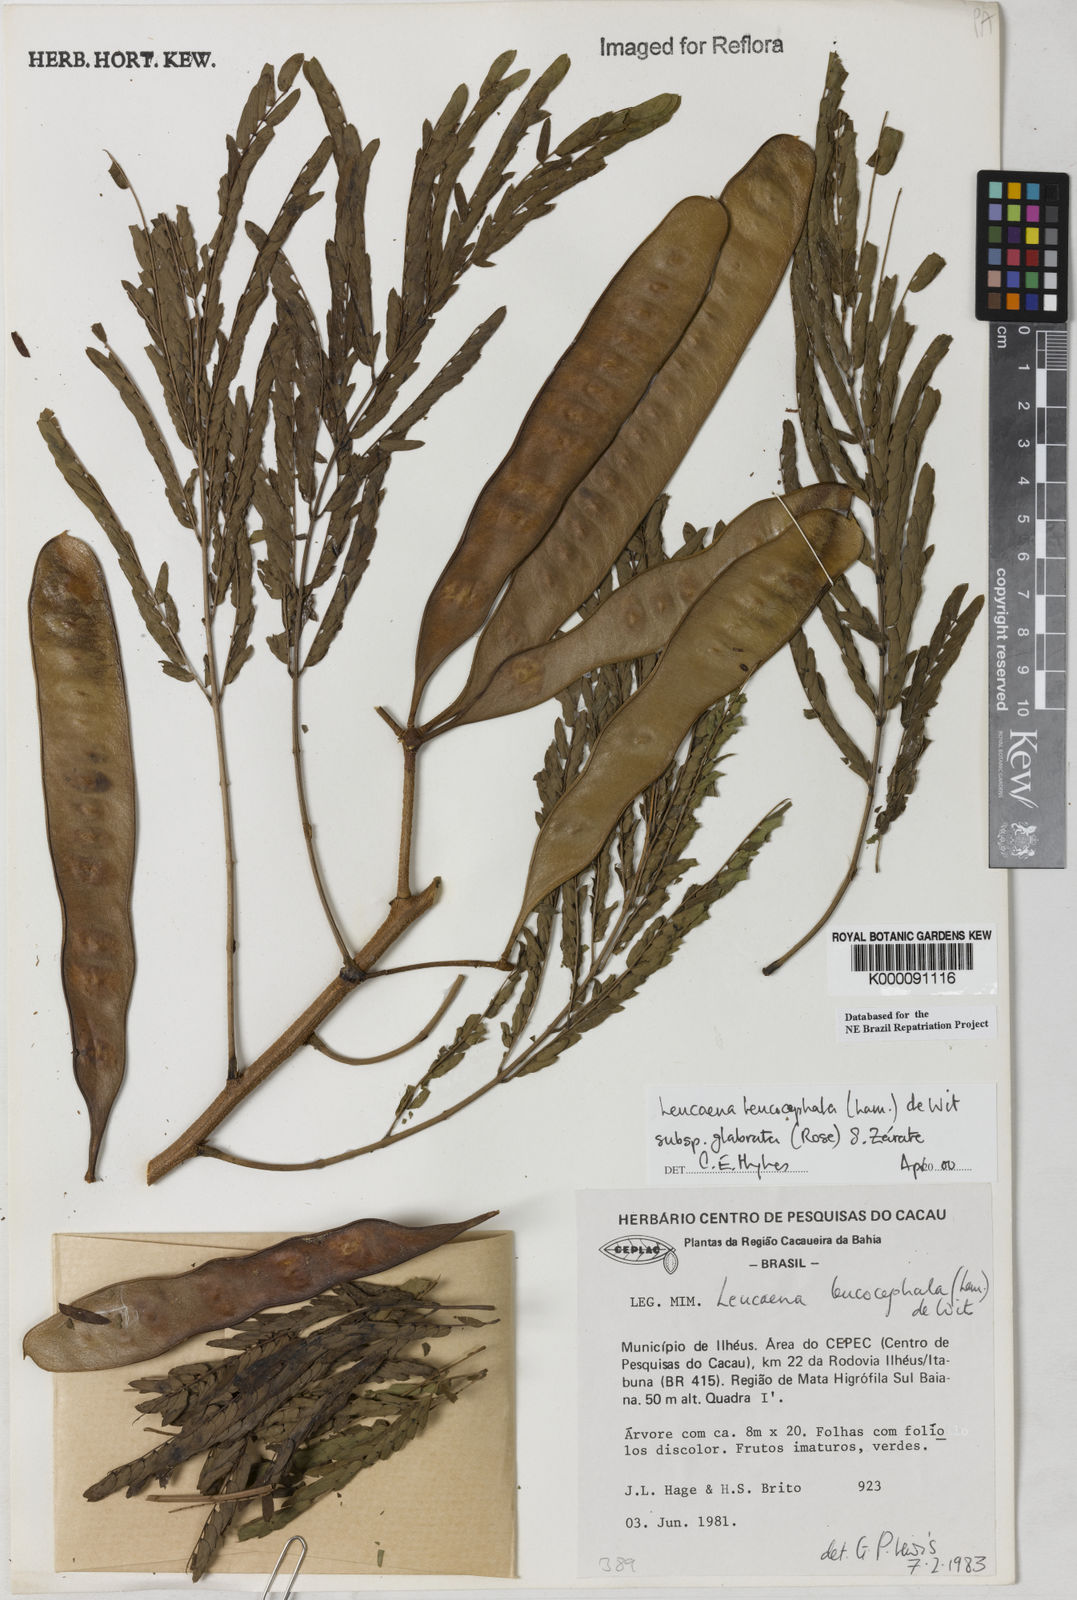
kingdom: Plantae
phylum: Tracheophyta
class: Magnoliopsida
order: Fabales
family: Fabaceae
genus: Leucaena
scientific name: Leucaena leucocephala
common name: White leadtree
